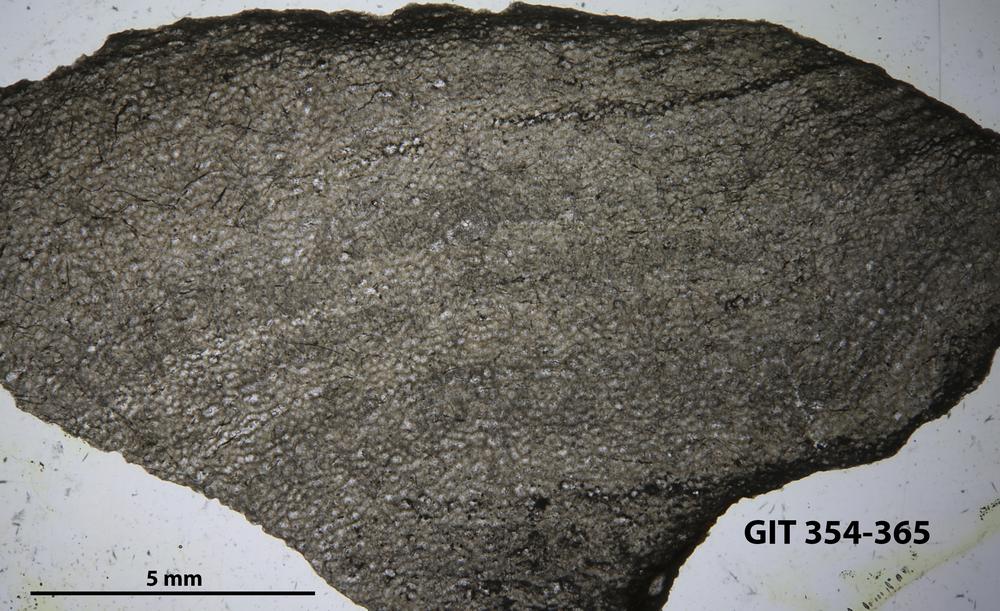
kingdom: Animalia
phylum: Porifera
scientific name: Porifera
